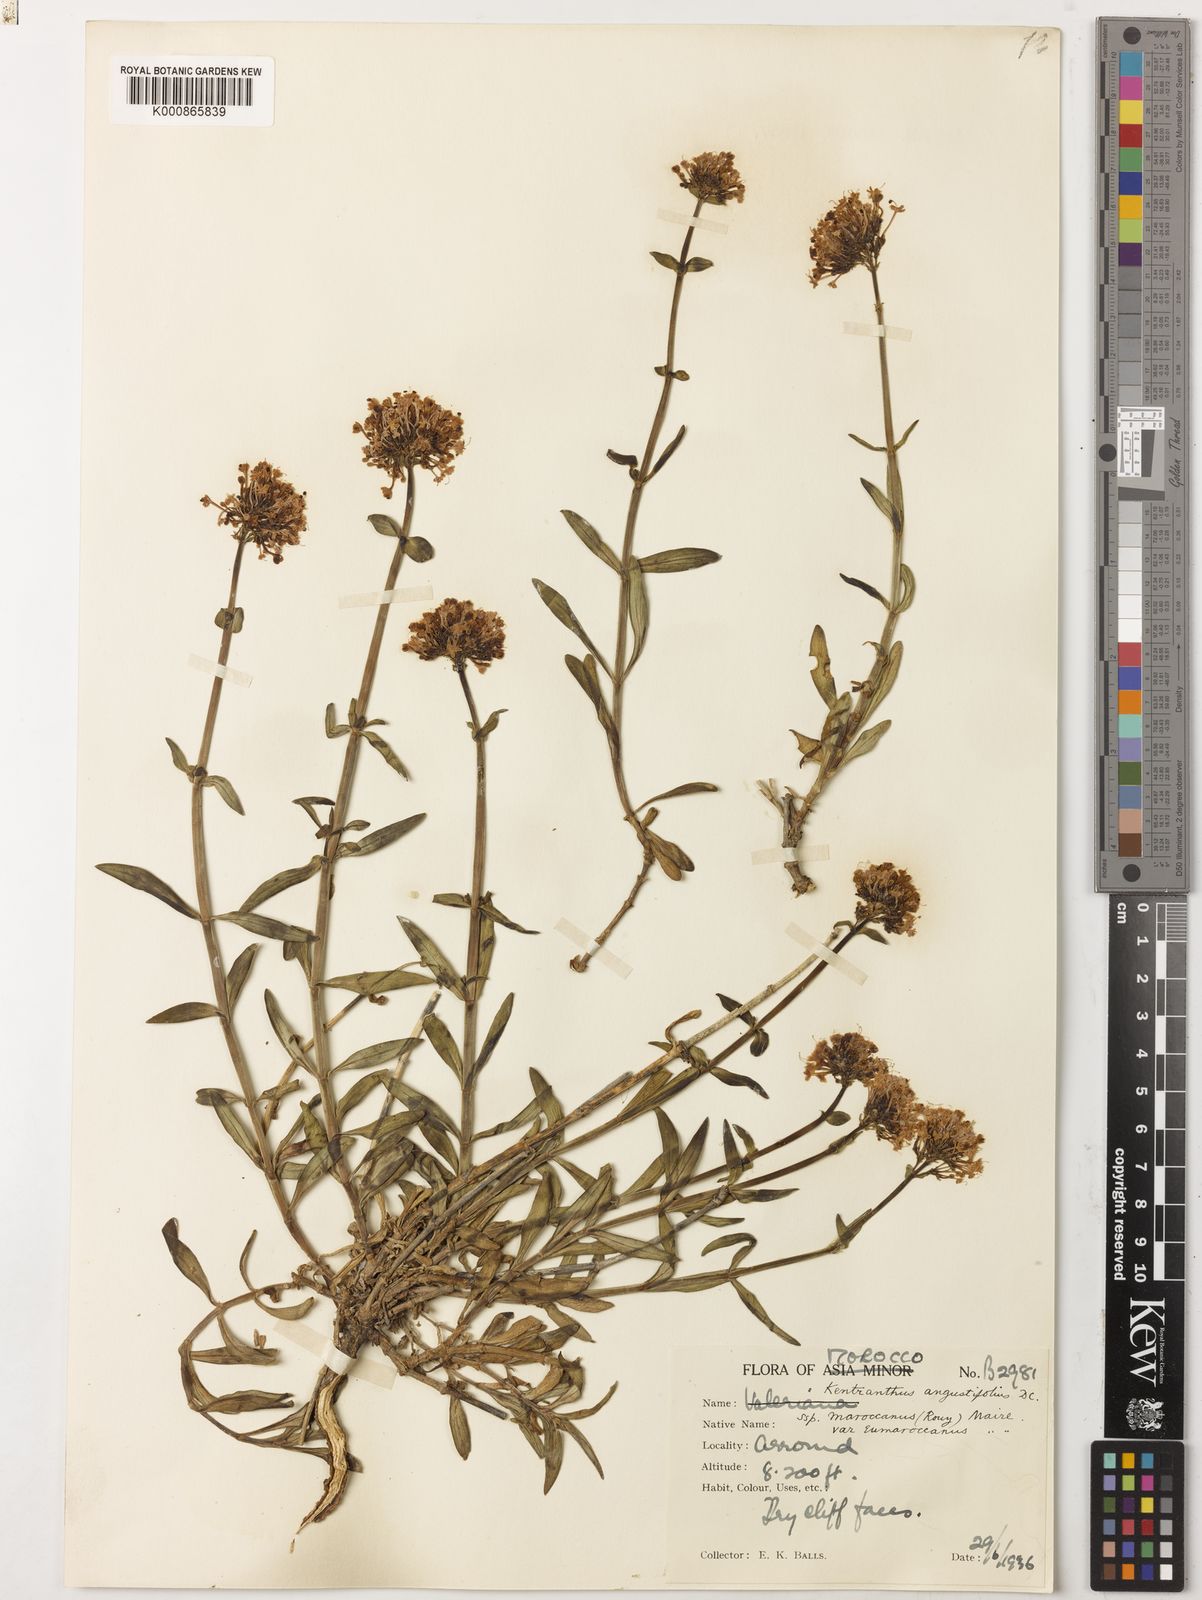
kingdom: Plantae
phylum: Tracheophyta
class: Magnoliopsida
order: Dipsacales
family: Caprifoliaceae
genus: Centranthus
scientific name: Centranthus angustifolius
